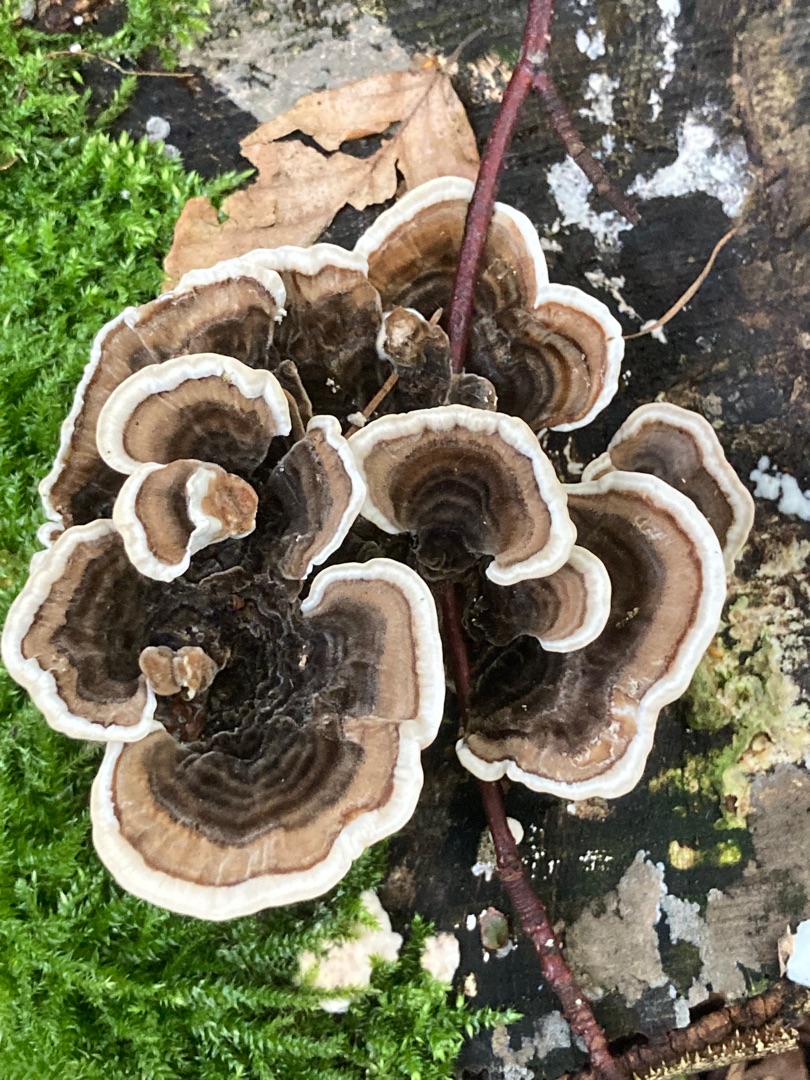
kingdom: Fungi
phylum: Basidiomycota
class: Agaricomycetes
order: Polyporales
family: Polyporaceae
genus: Trametes
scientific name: Trametes versicolor
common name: Broget læderporesvamp
